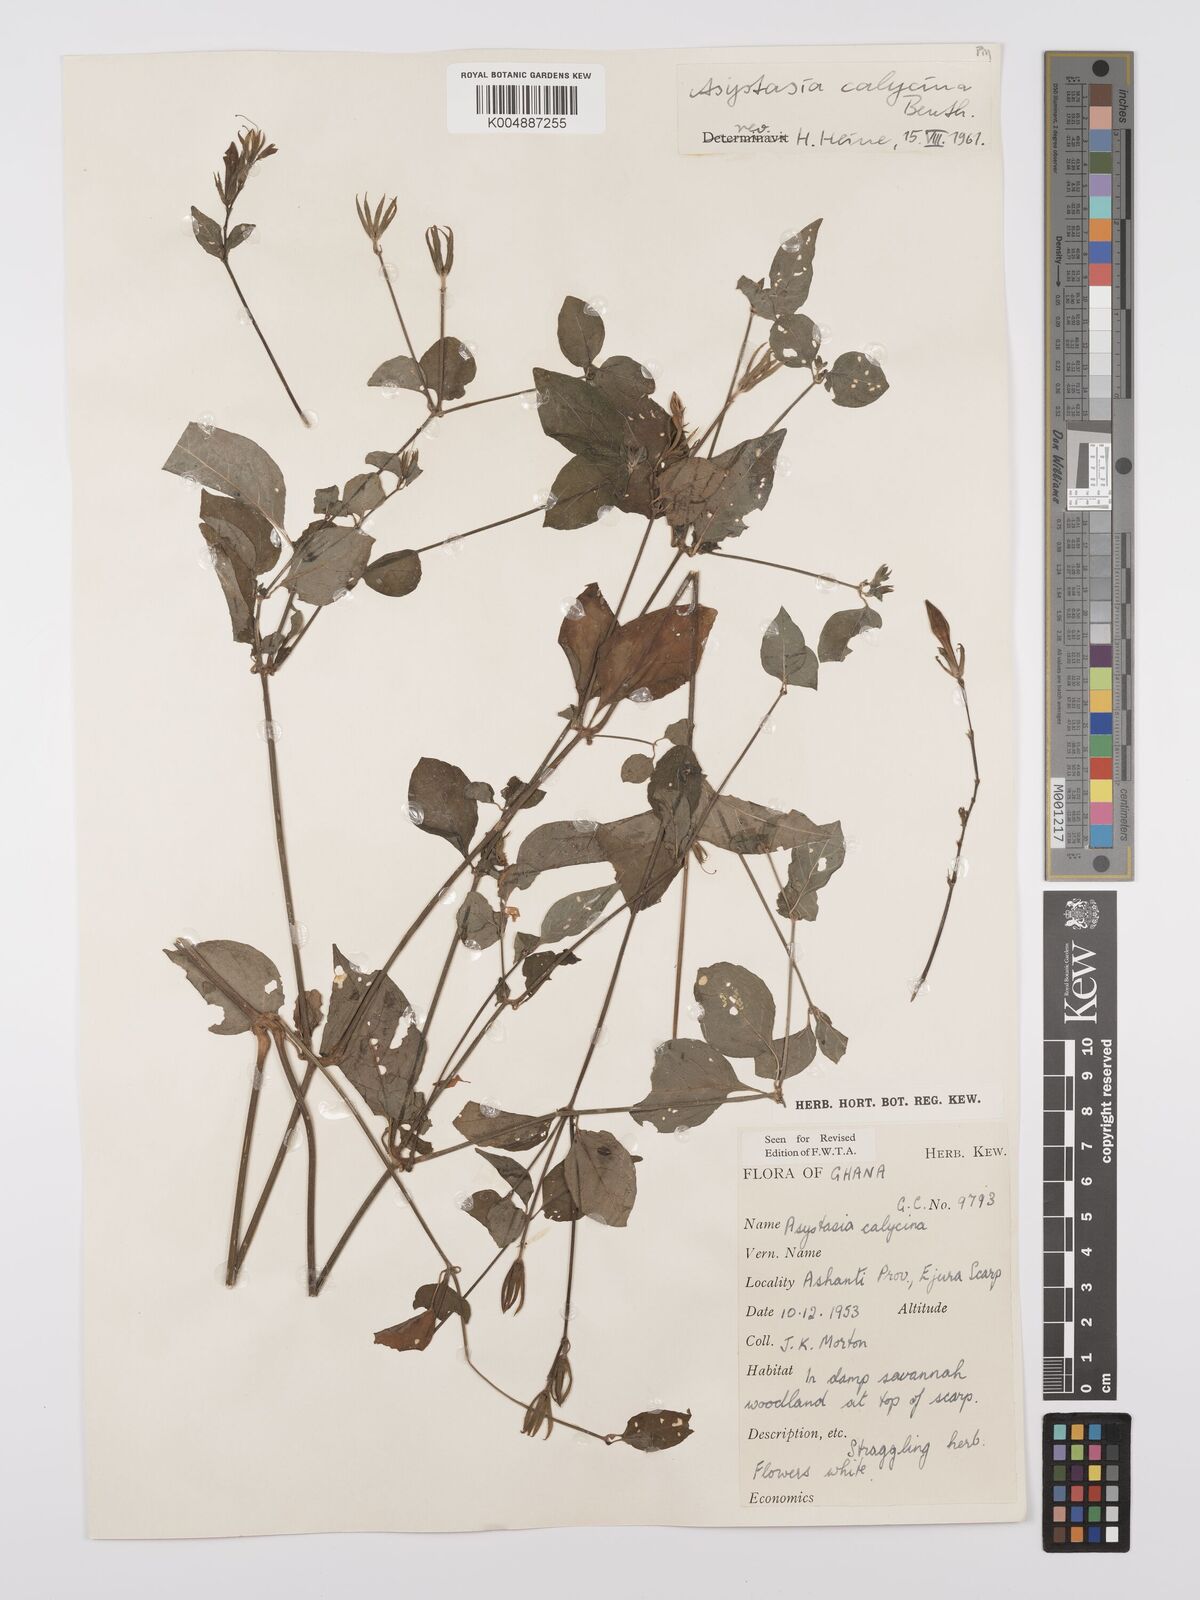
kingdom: Plantae
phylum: Tracheophyta
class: Magnoliopsida
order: Lamiales
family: Acanthaceae
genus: Asystasia
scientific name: Asystasia
